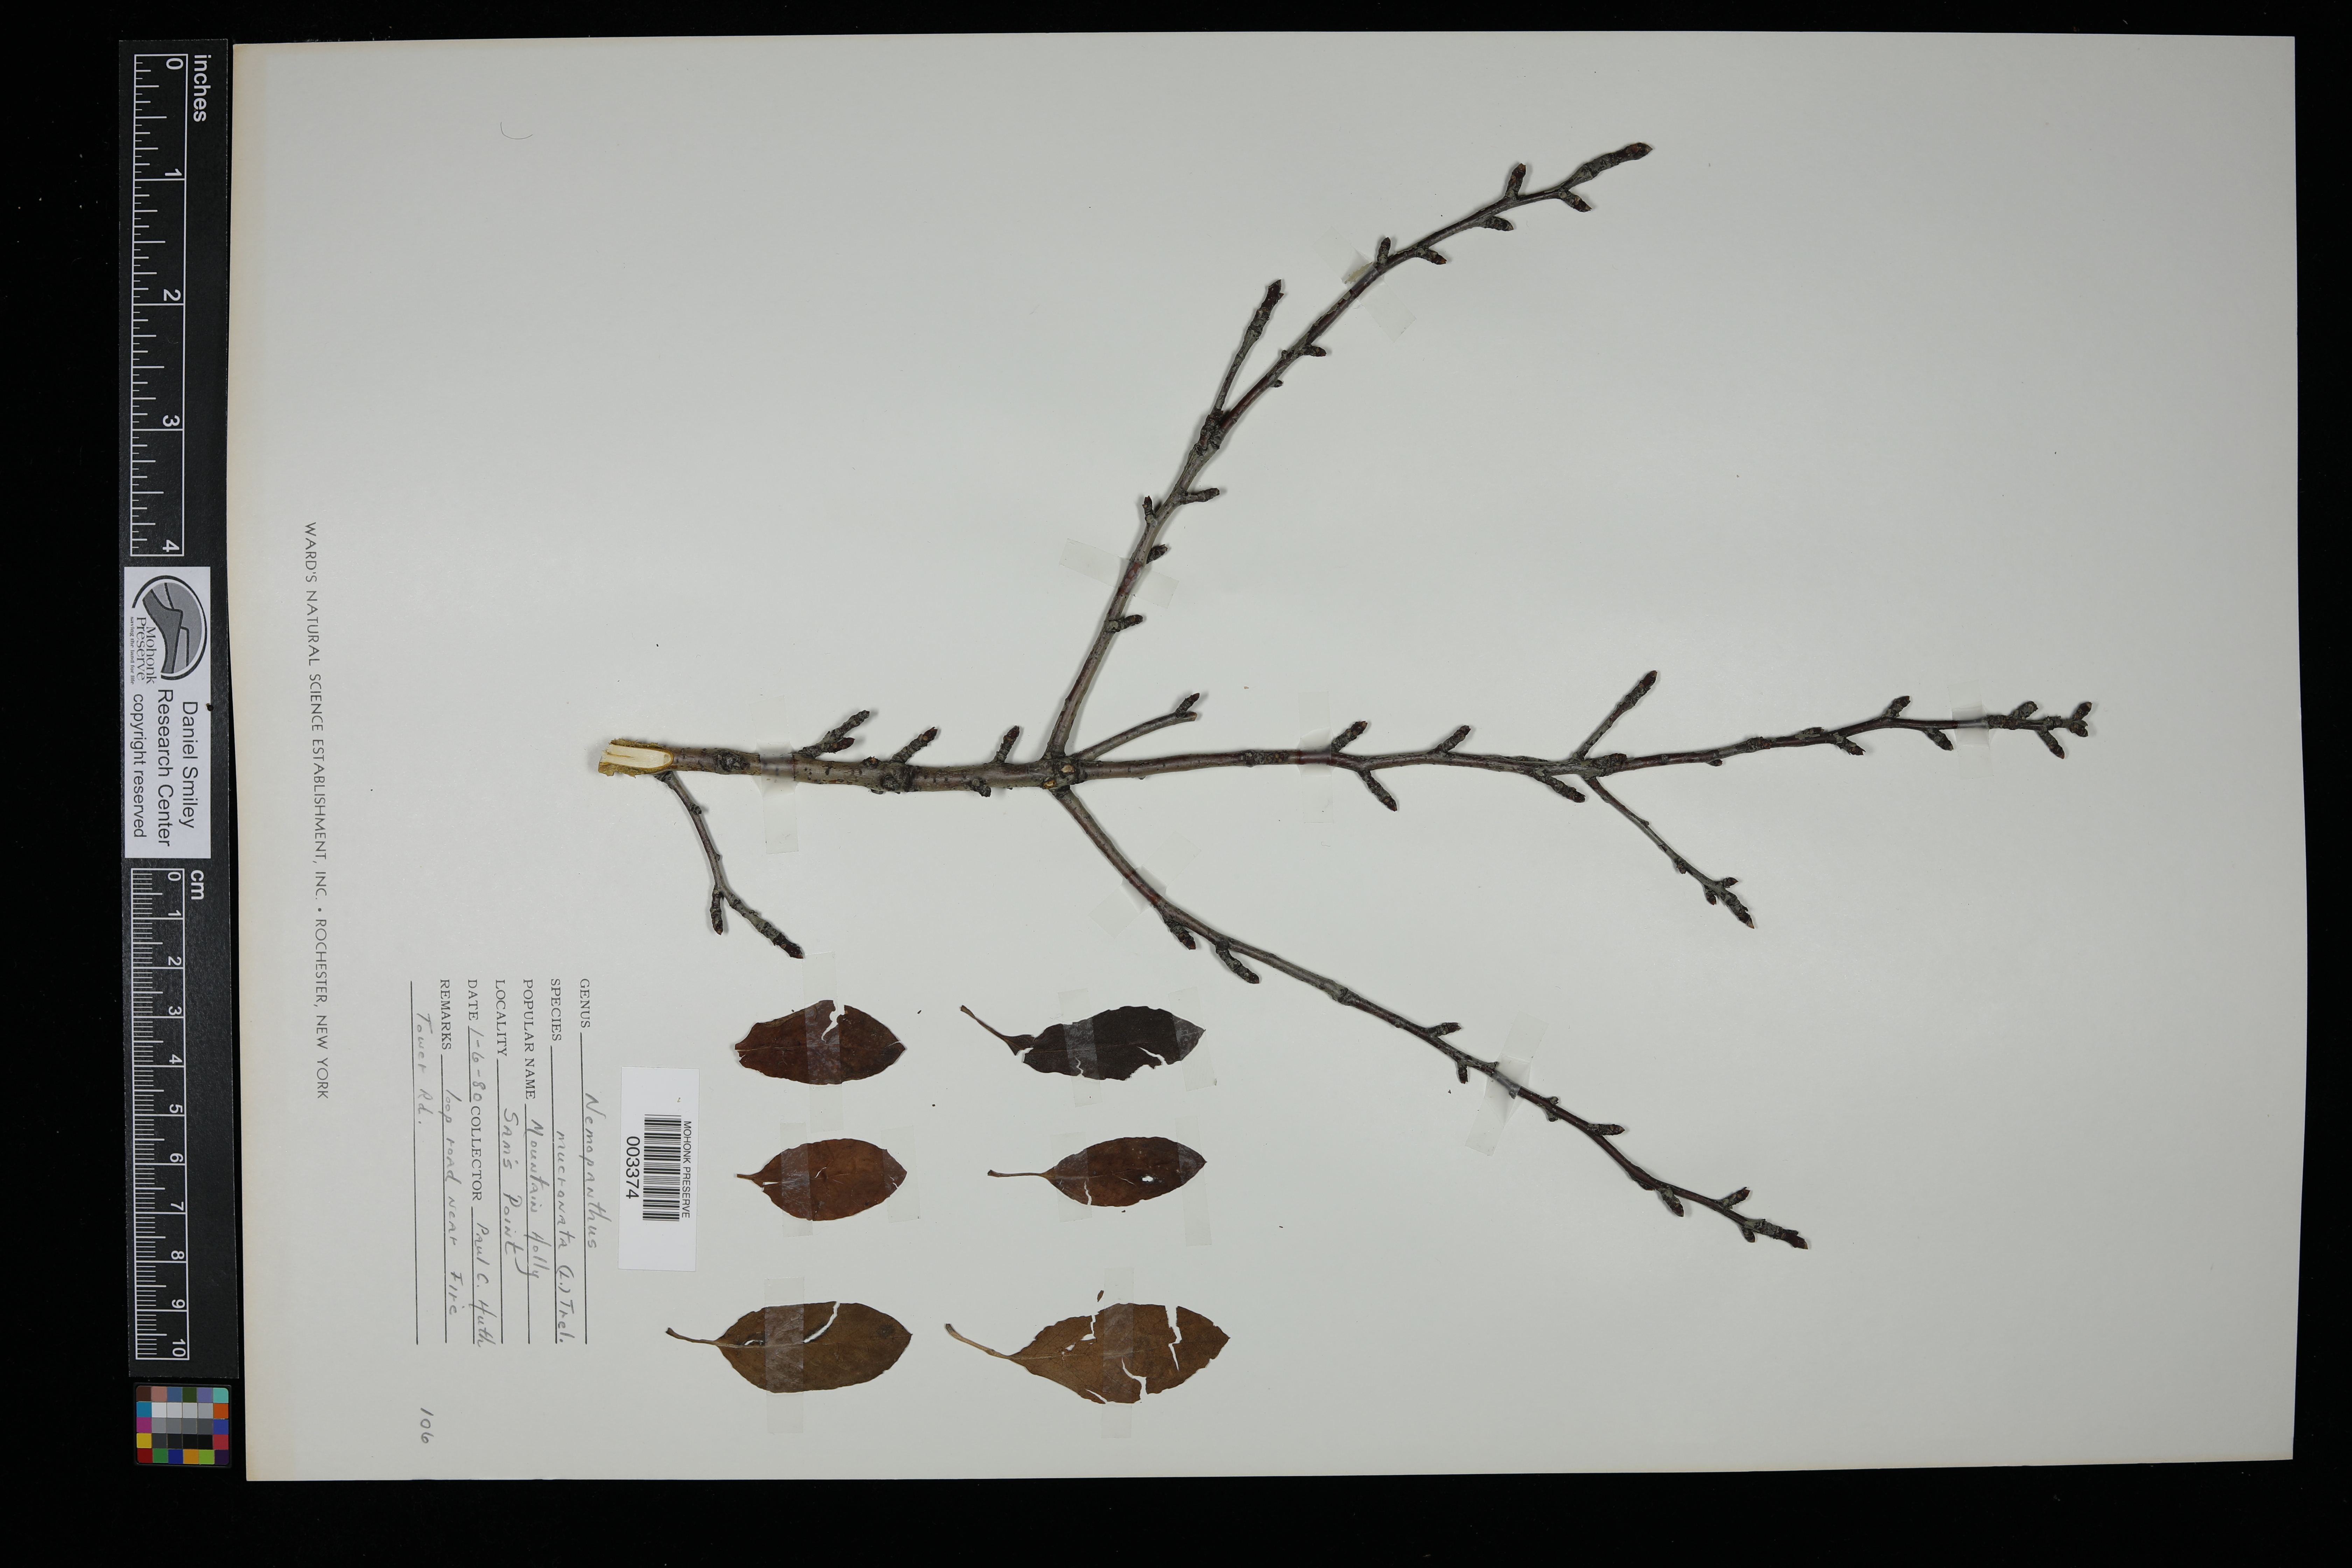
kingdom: Plantae
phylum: Tracheophyta
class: Magnoliopsida
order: Aquifoliales
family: Aquifoliaceae
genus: Ilex
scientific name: Ilex mucronata
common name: Catberry
